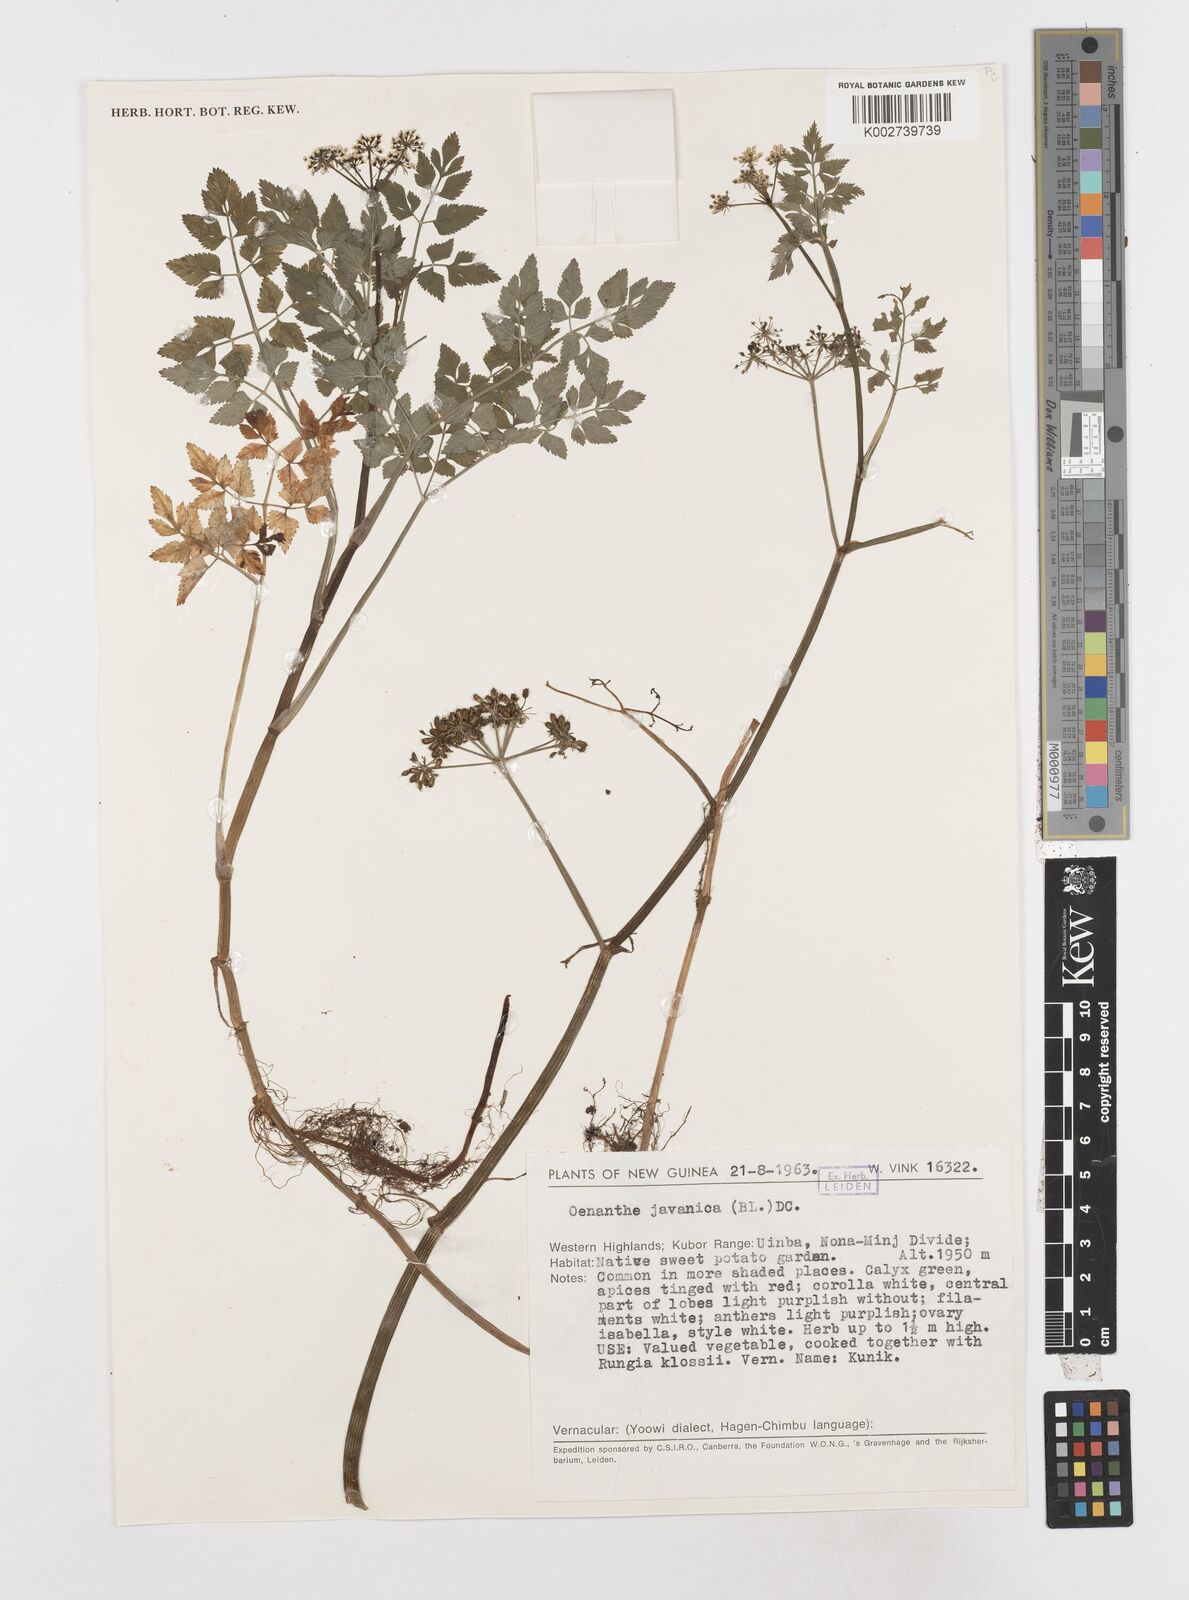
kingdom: Plantae
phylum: Tracheophyta
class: Magnoliopsida
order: Apiales
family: Apiaceae
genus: Oenanthe
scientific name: Oenanthe javanica
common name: Java water-dropwort
